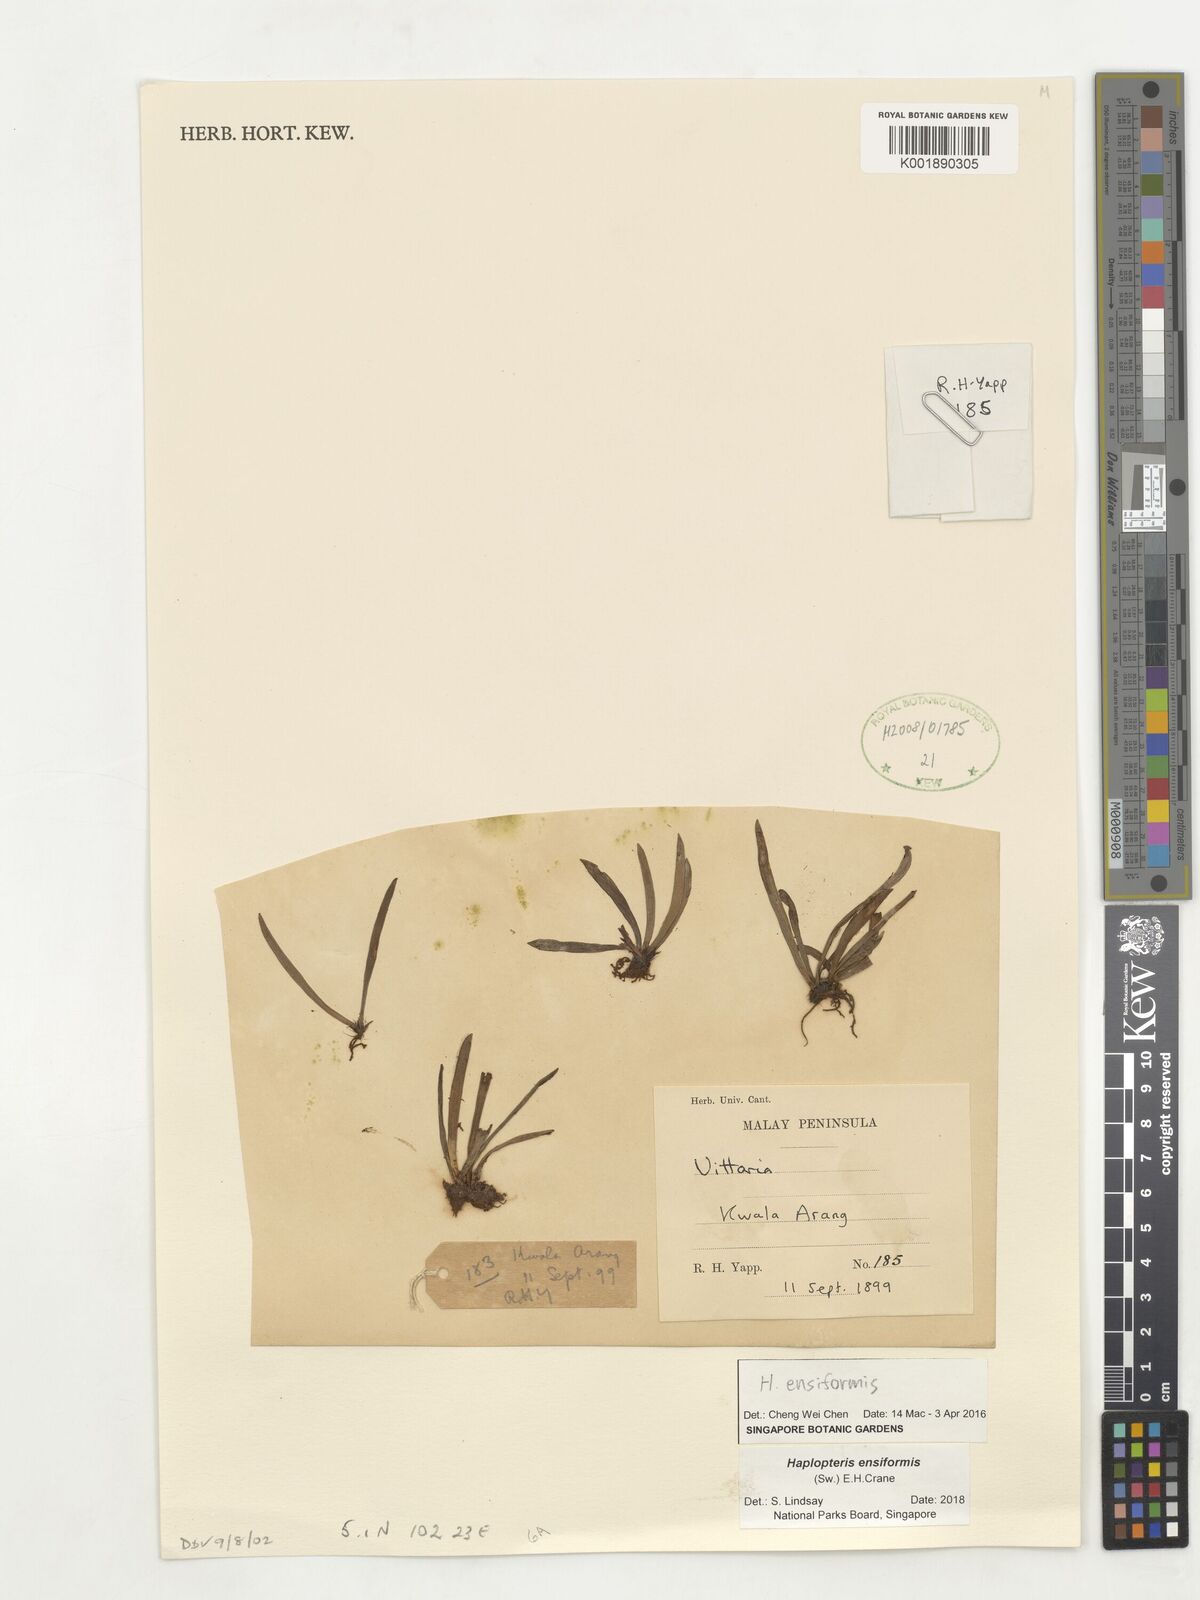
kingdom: Plantae
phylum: Tracheophyta
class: Polypodiopsida
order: Polypodiales
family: Pteridaceae
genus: Haplopteris
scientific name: Haplopteris ensiformis
